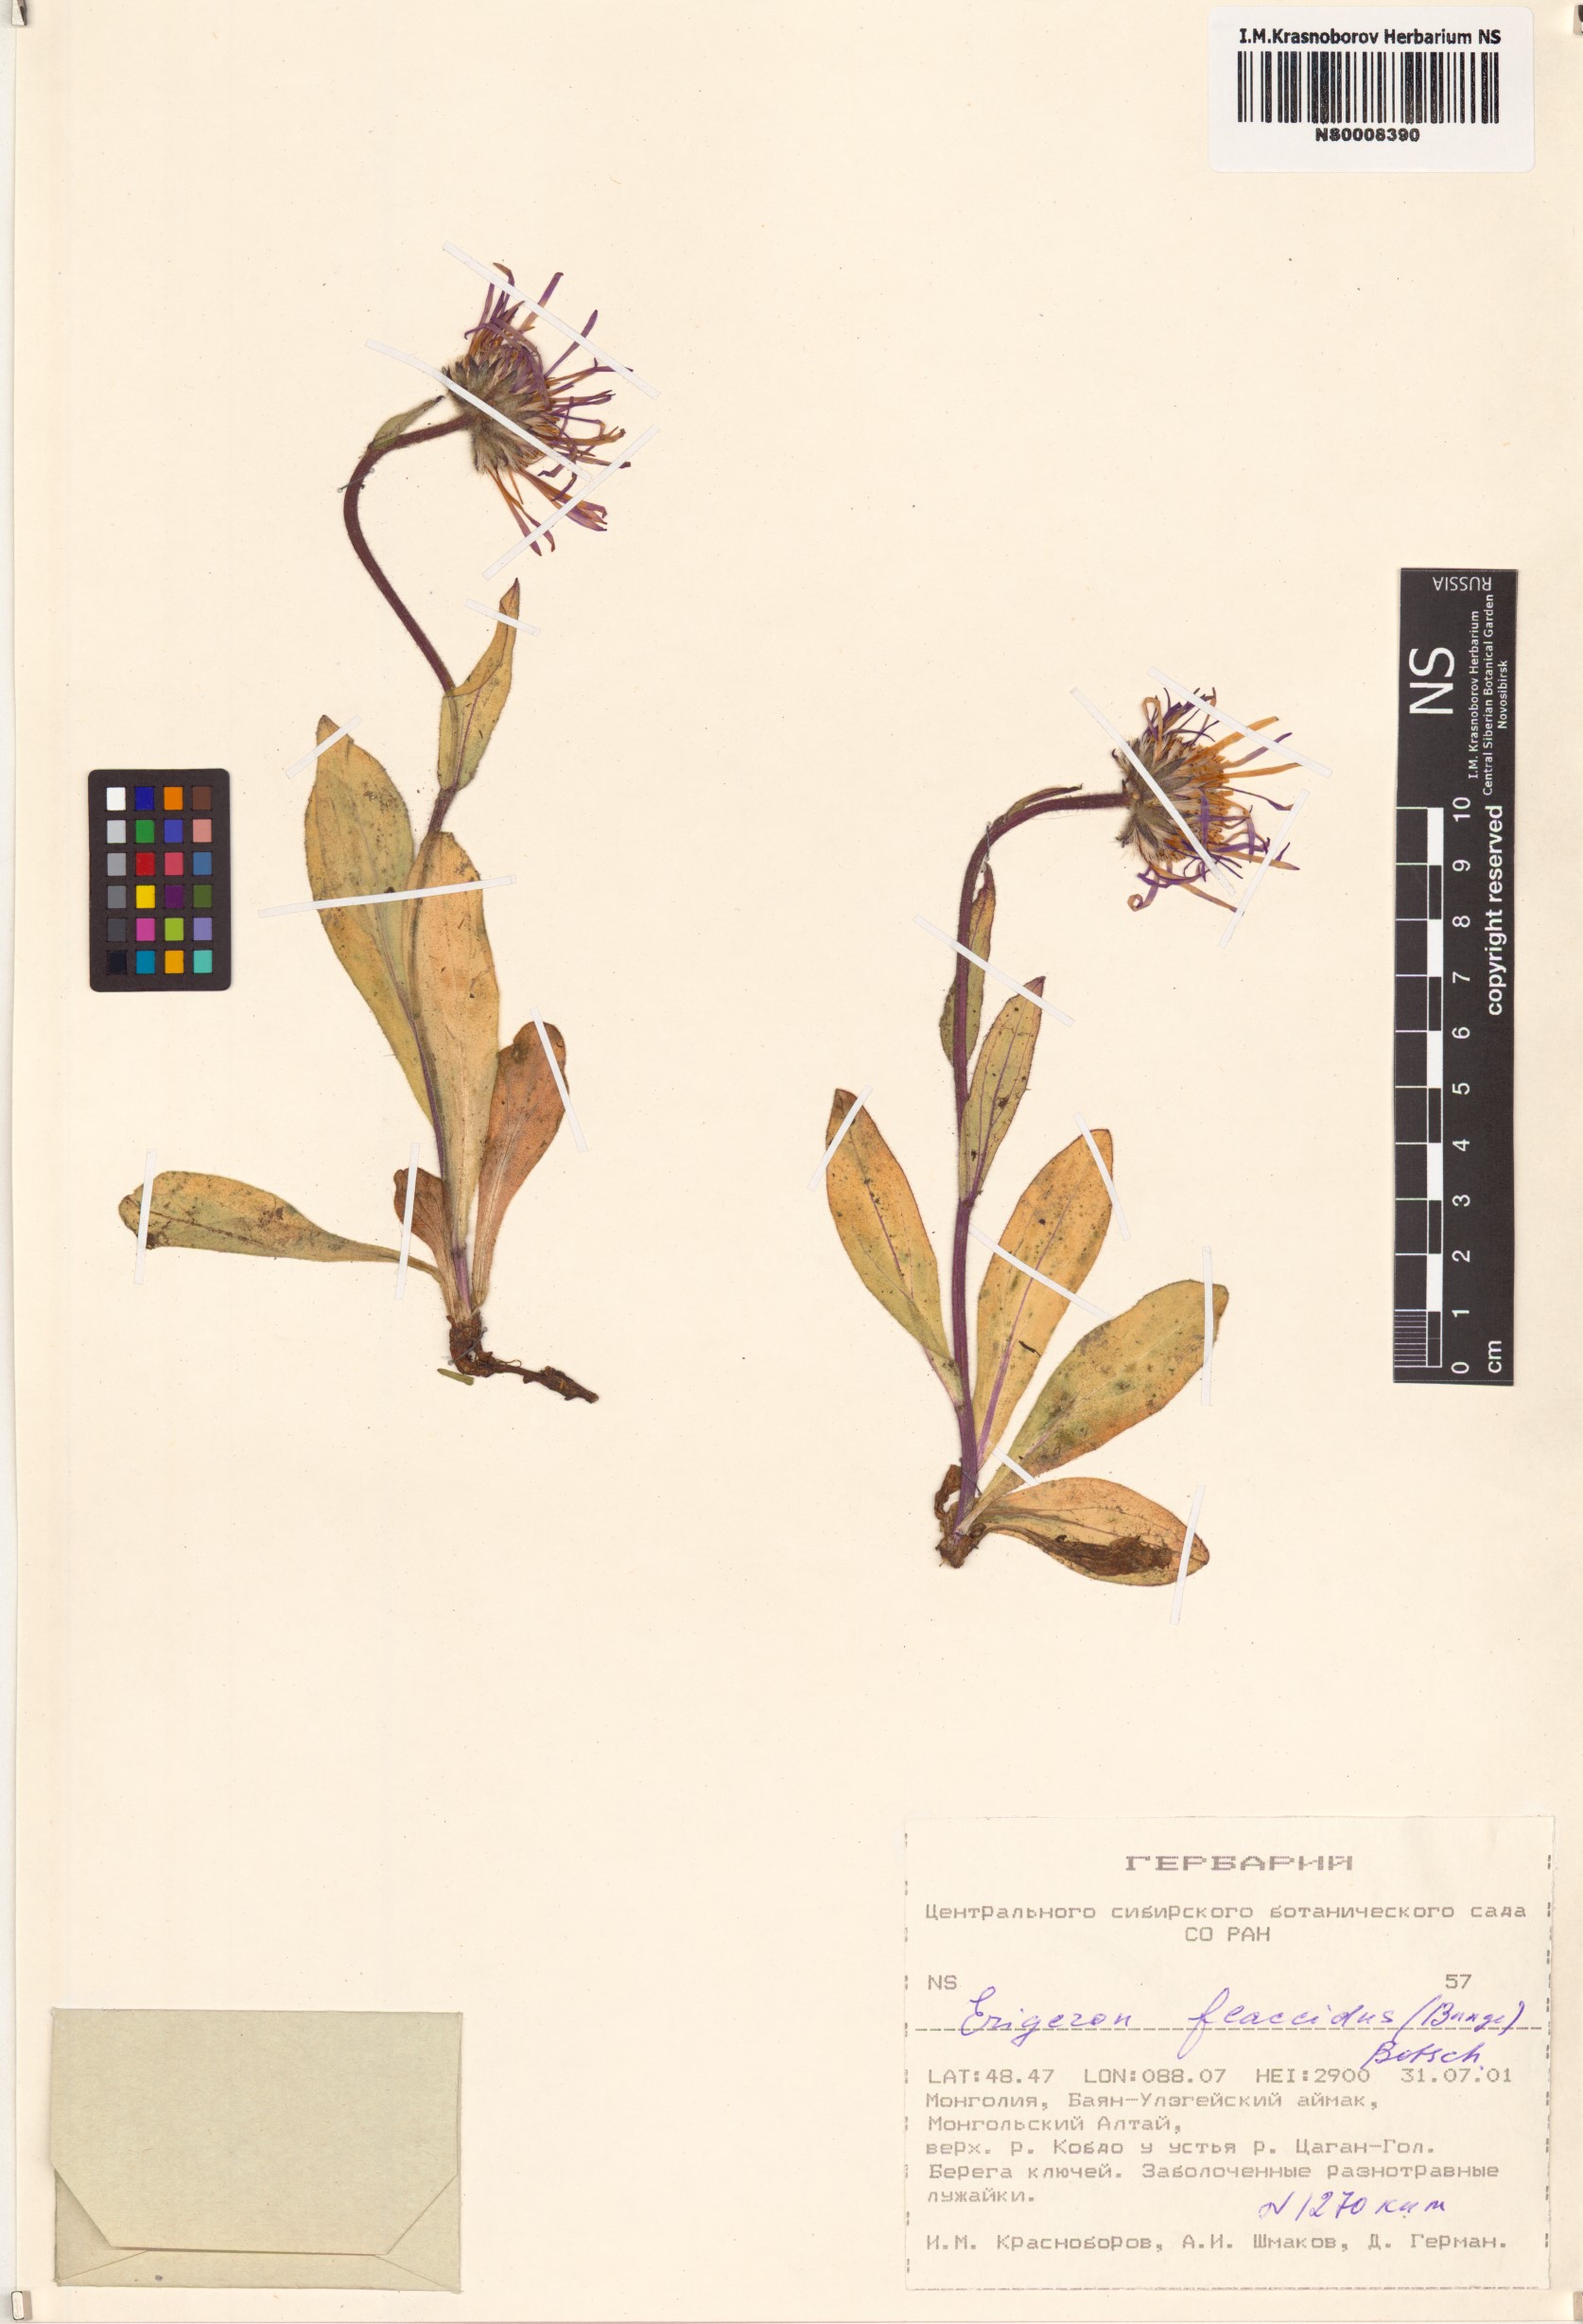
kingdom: Plantae
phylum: Tracheophyta
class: Magnoliopsida
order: Asterales
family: Asteraceae
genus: Tibetiodes
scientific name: Tibetiodes flaccida
